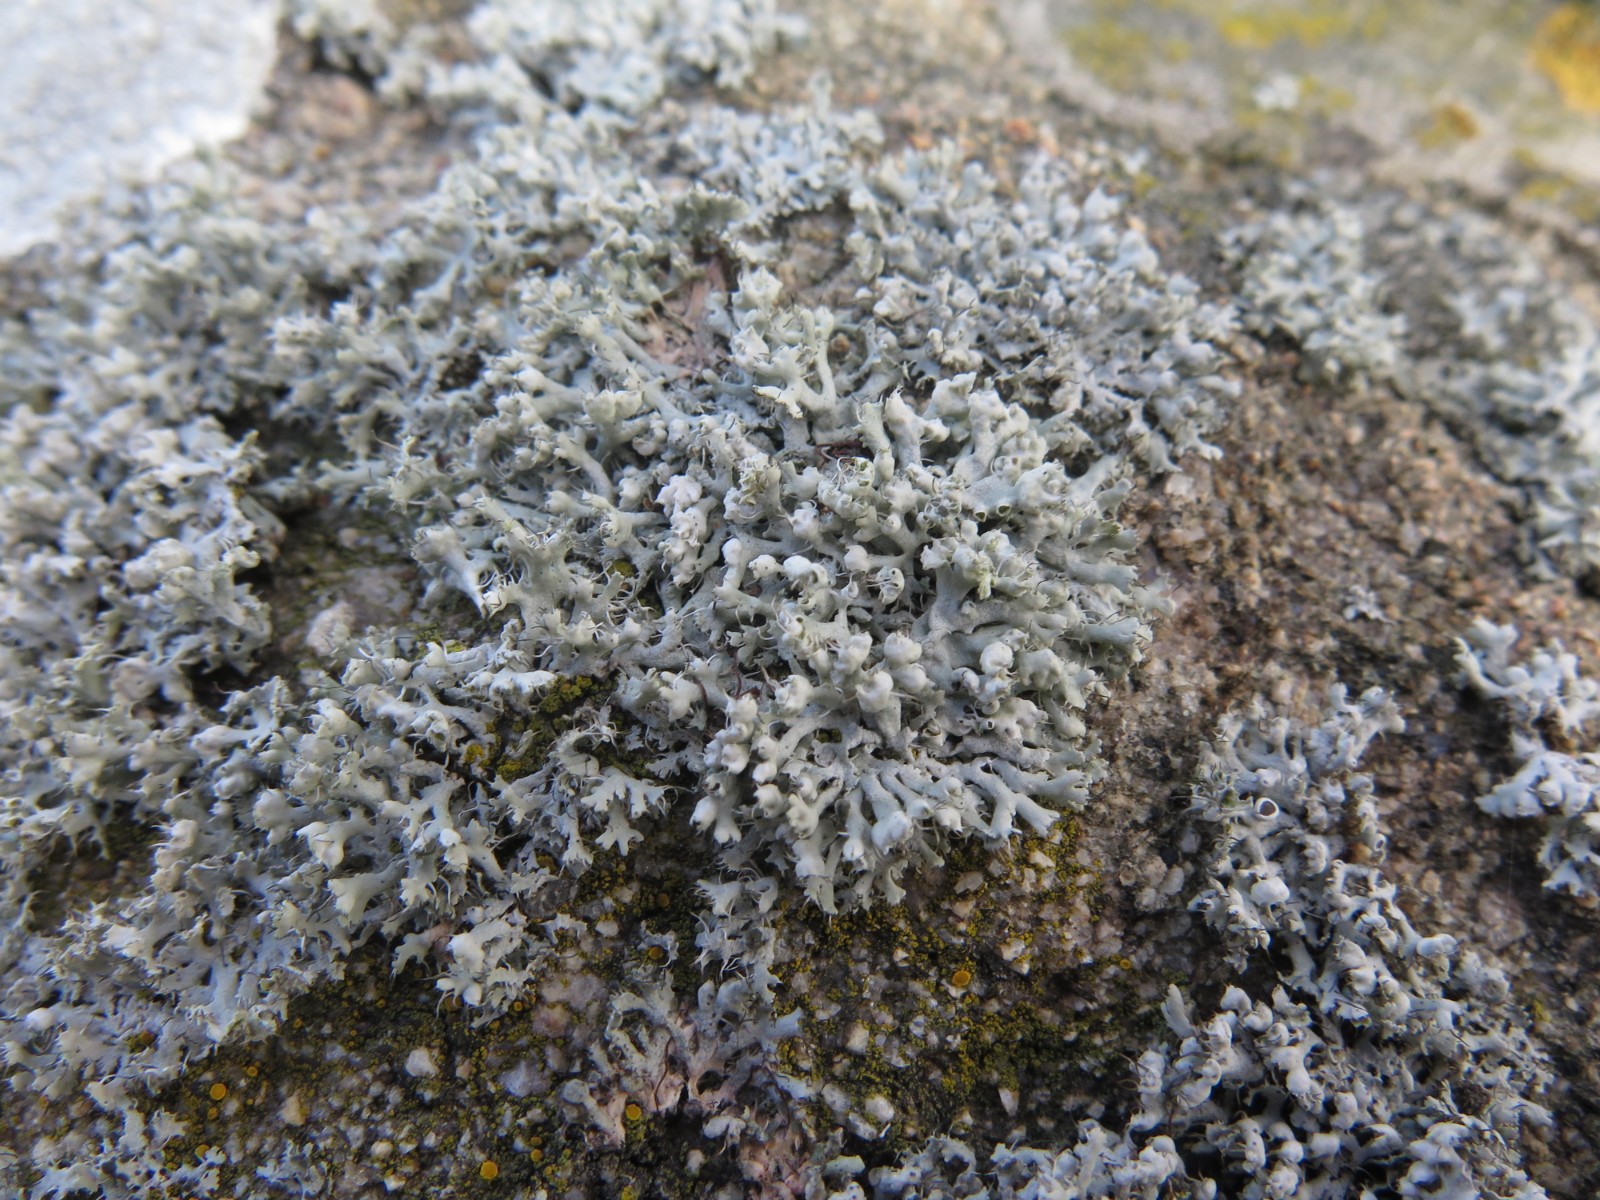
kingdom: Fungi
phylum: Ascomycota
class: Lecanoromycetes
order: Caliciales
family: Physciaceae
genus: Physcia
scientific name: Physcia adscendens
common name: hætte-rosetlav
